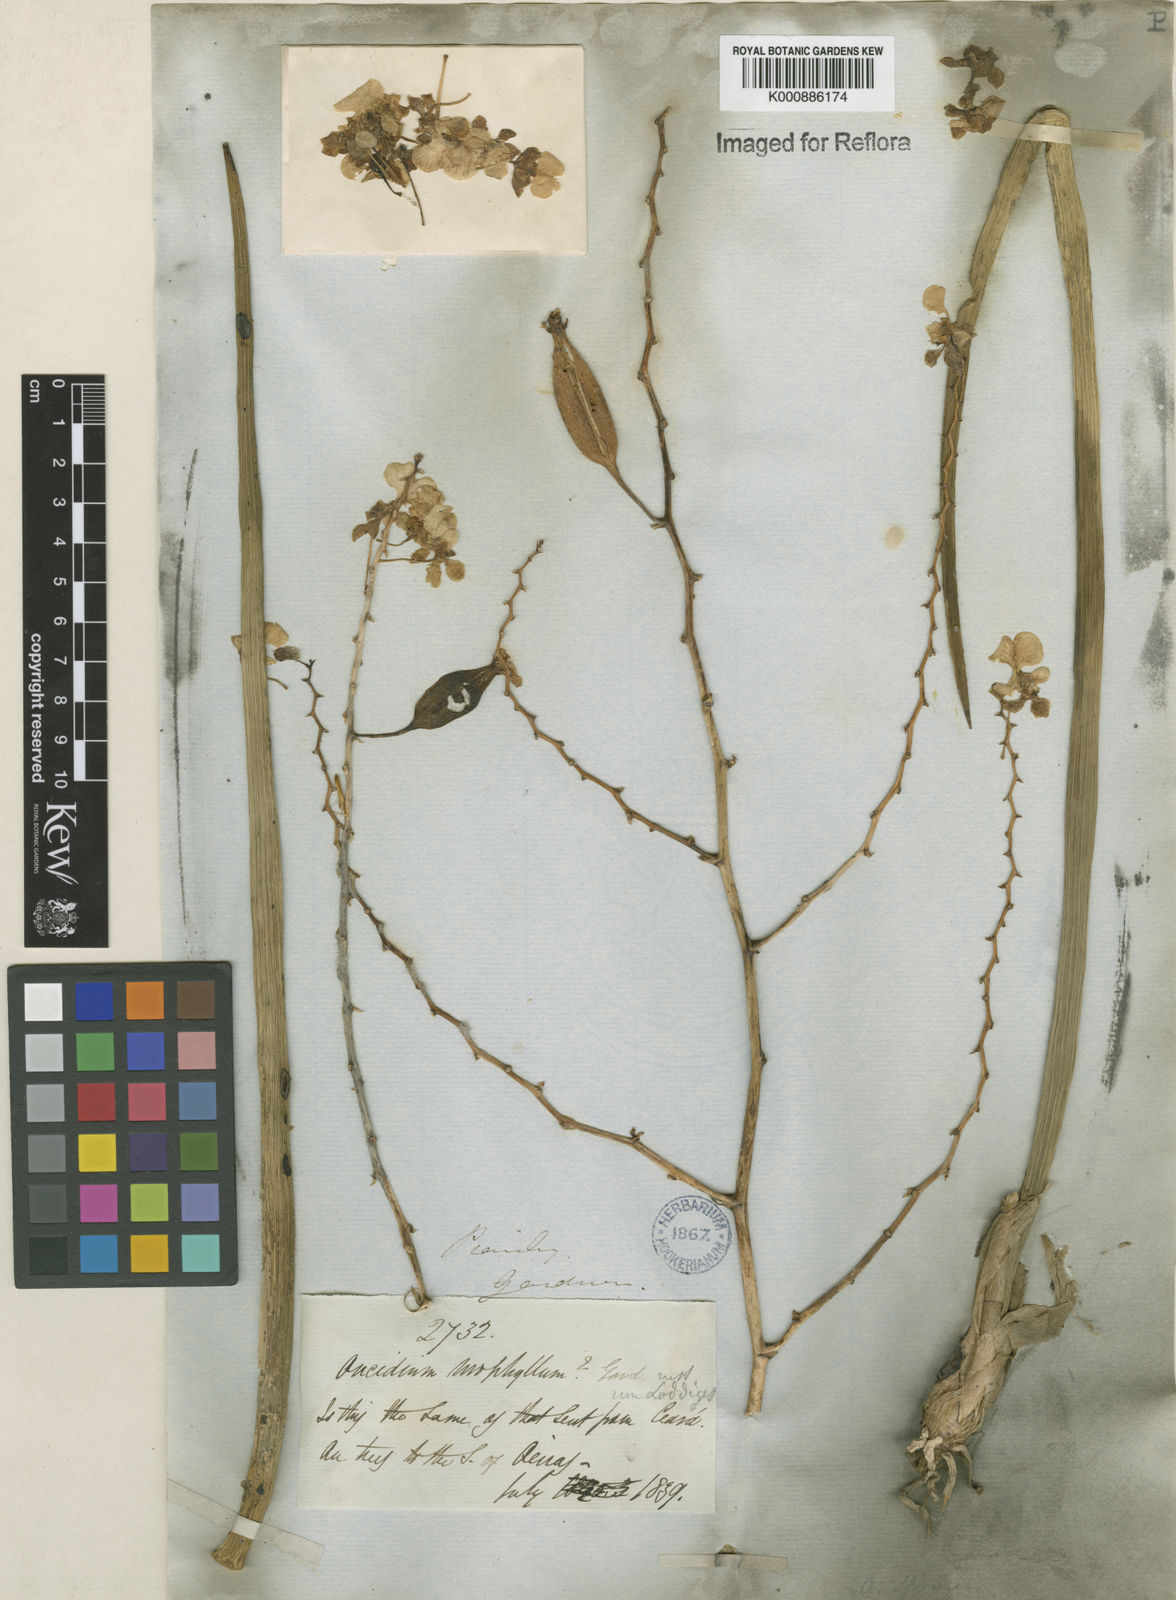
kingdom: Plantae
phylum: Tracheophyta
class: Liliopsida
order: Asparagales
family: Orchidaceae
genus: Trichocentrum
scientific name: Trichocentrum cebolleta
